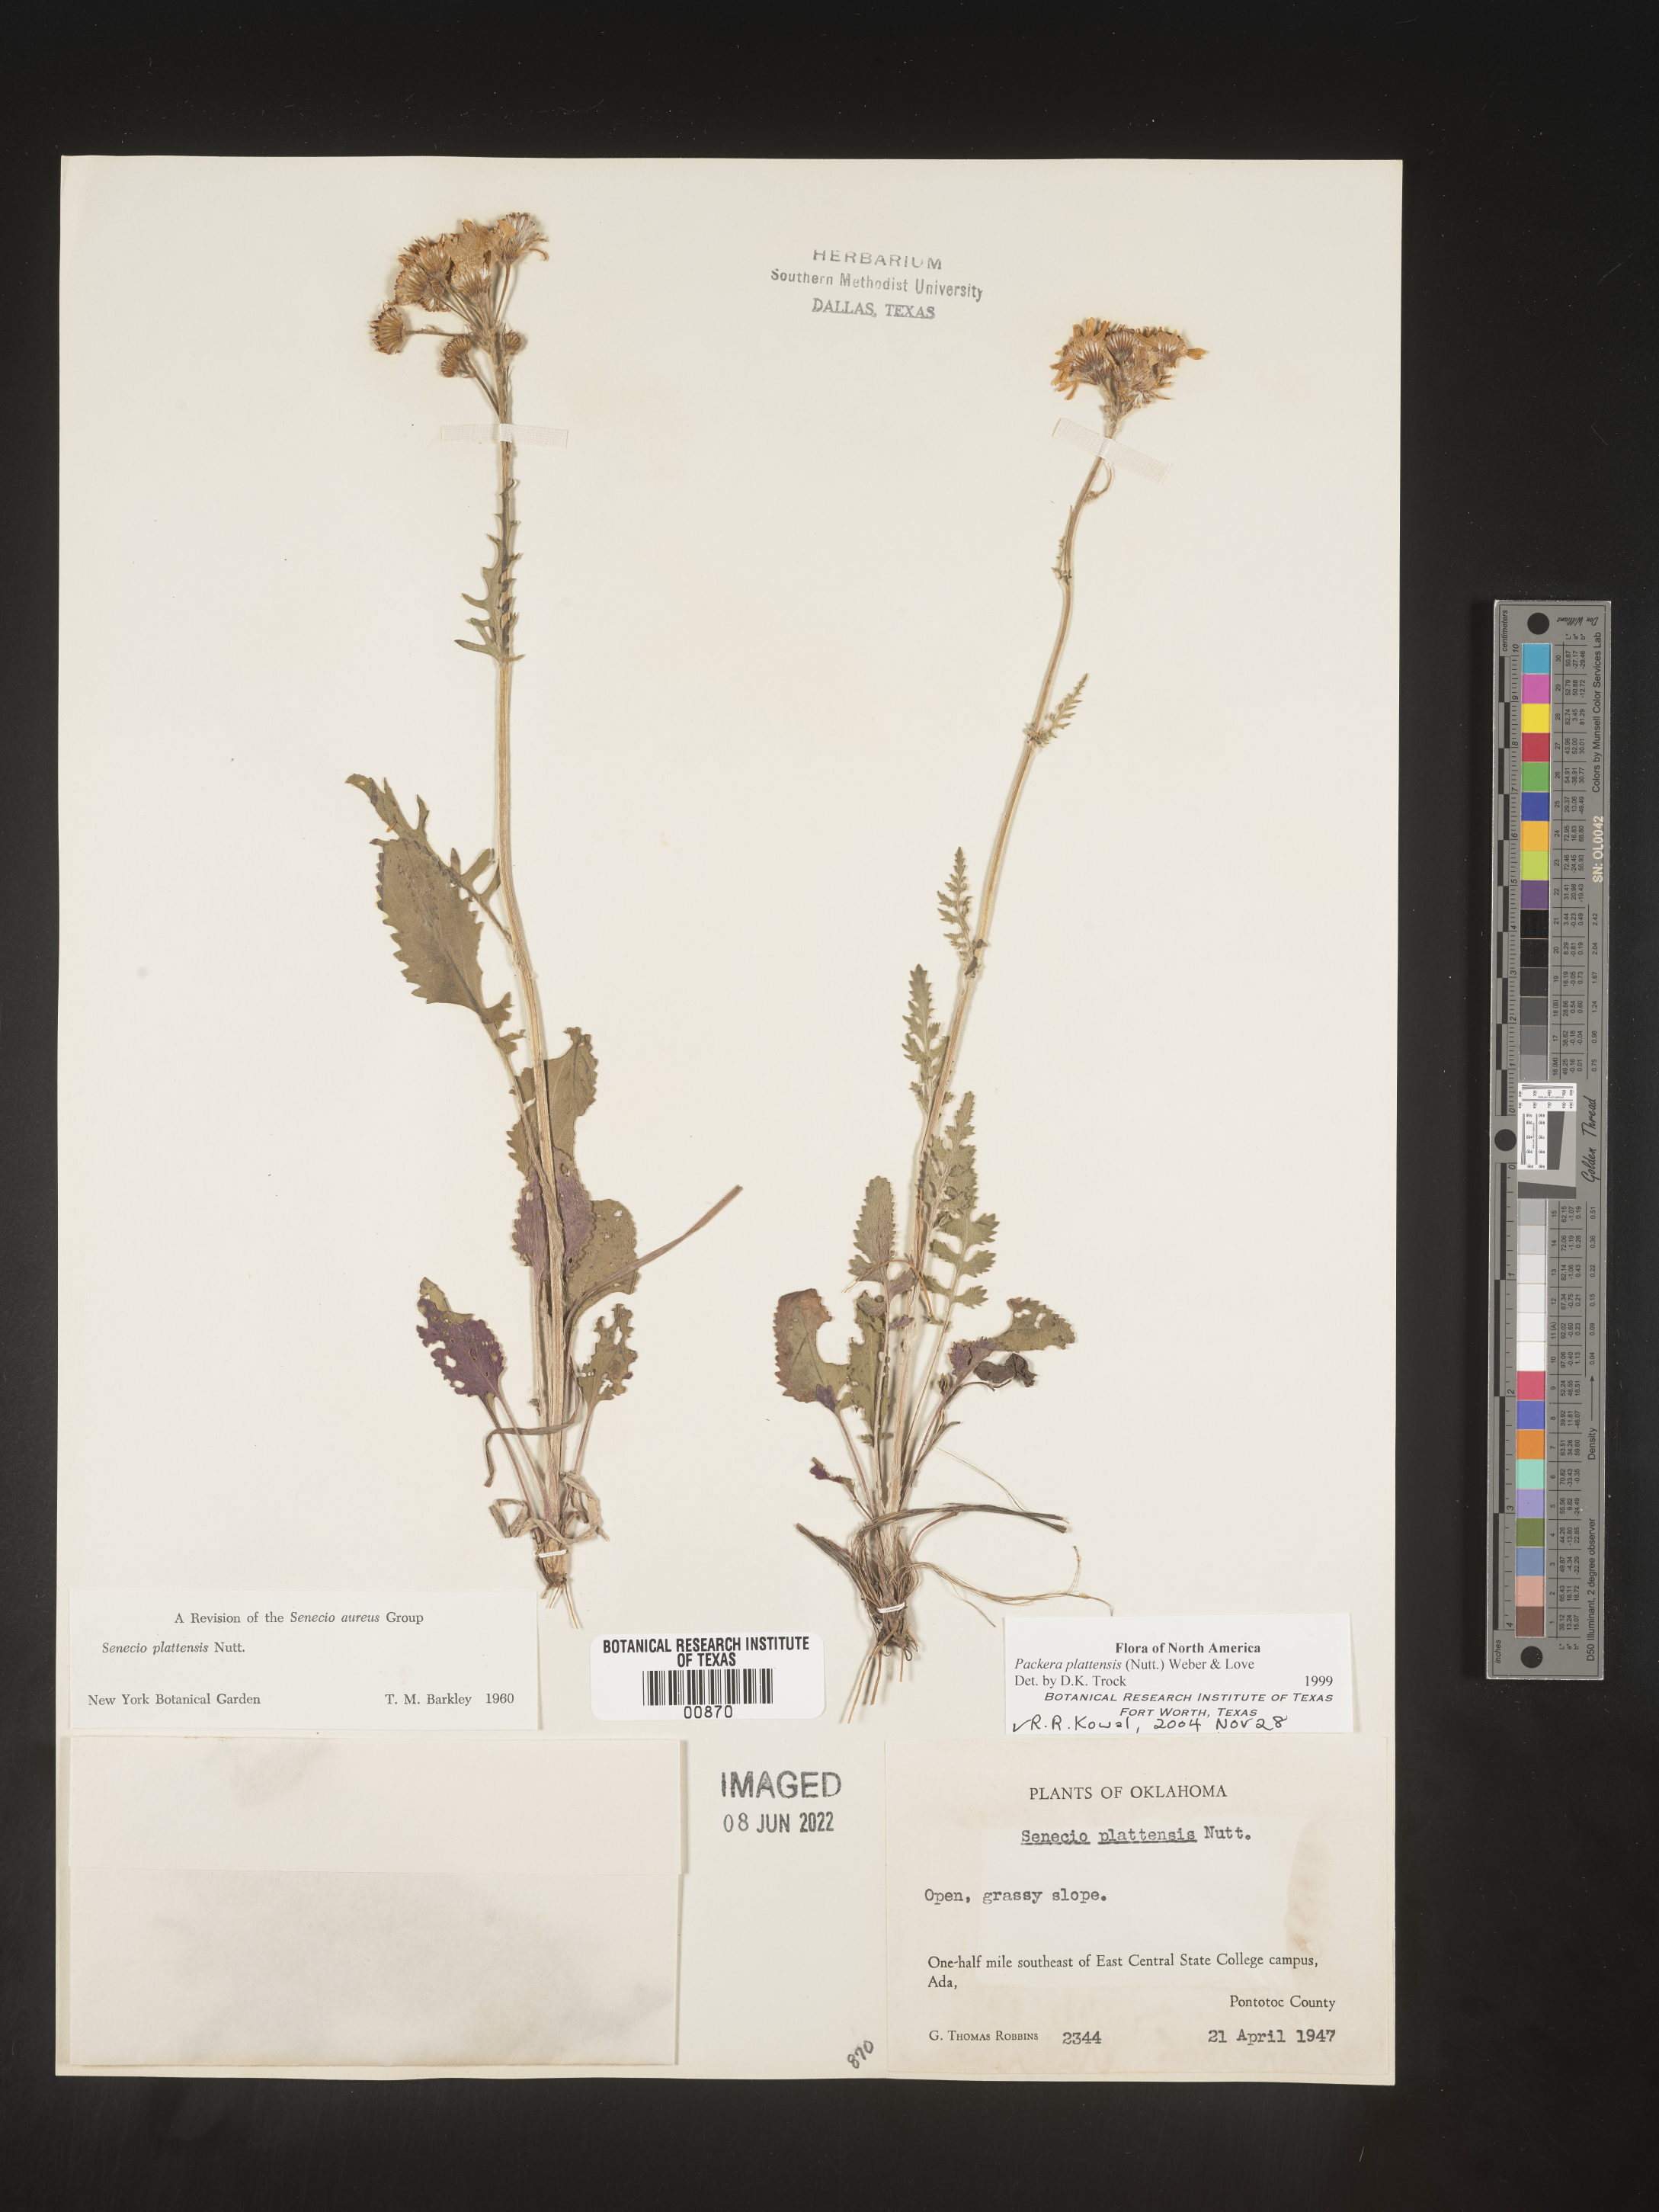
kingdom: Plantae
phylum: Tracheophyta
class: Magnoliopsida
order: Asterales
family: Asteraceae
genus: Packera
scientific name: Packera plattensis
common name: Prairie groundsel
